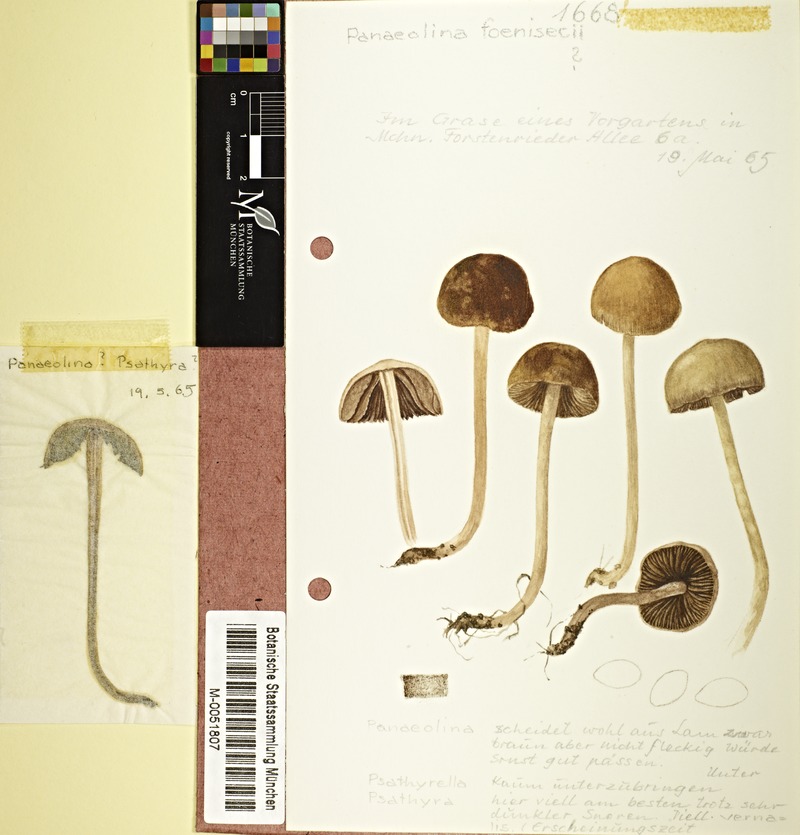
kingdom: Fungi
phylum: Basidiomycota
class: Agaricomycetes
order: Agaricales
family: Bolbitiaceae
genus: Panaeolina
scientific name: Panaeolina foenisecii
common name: Brown hay cap
